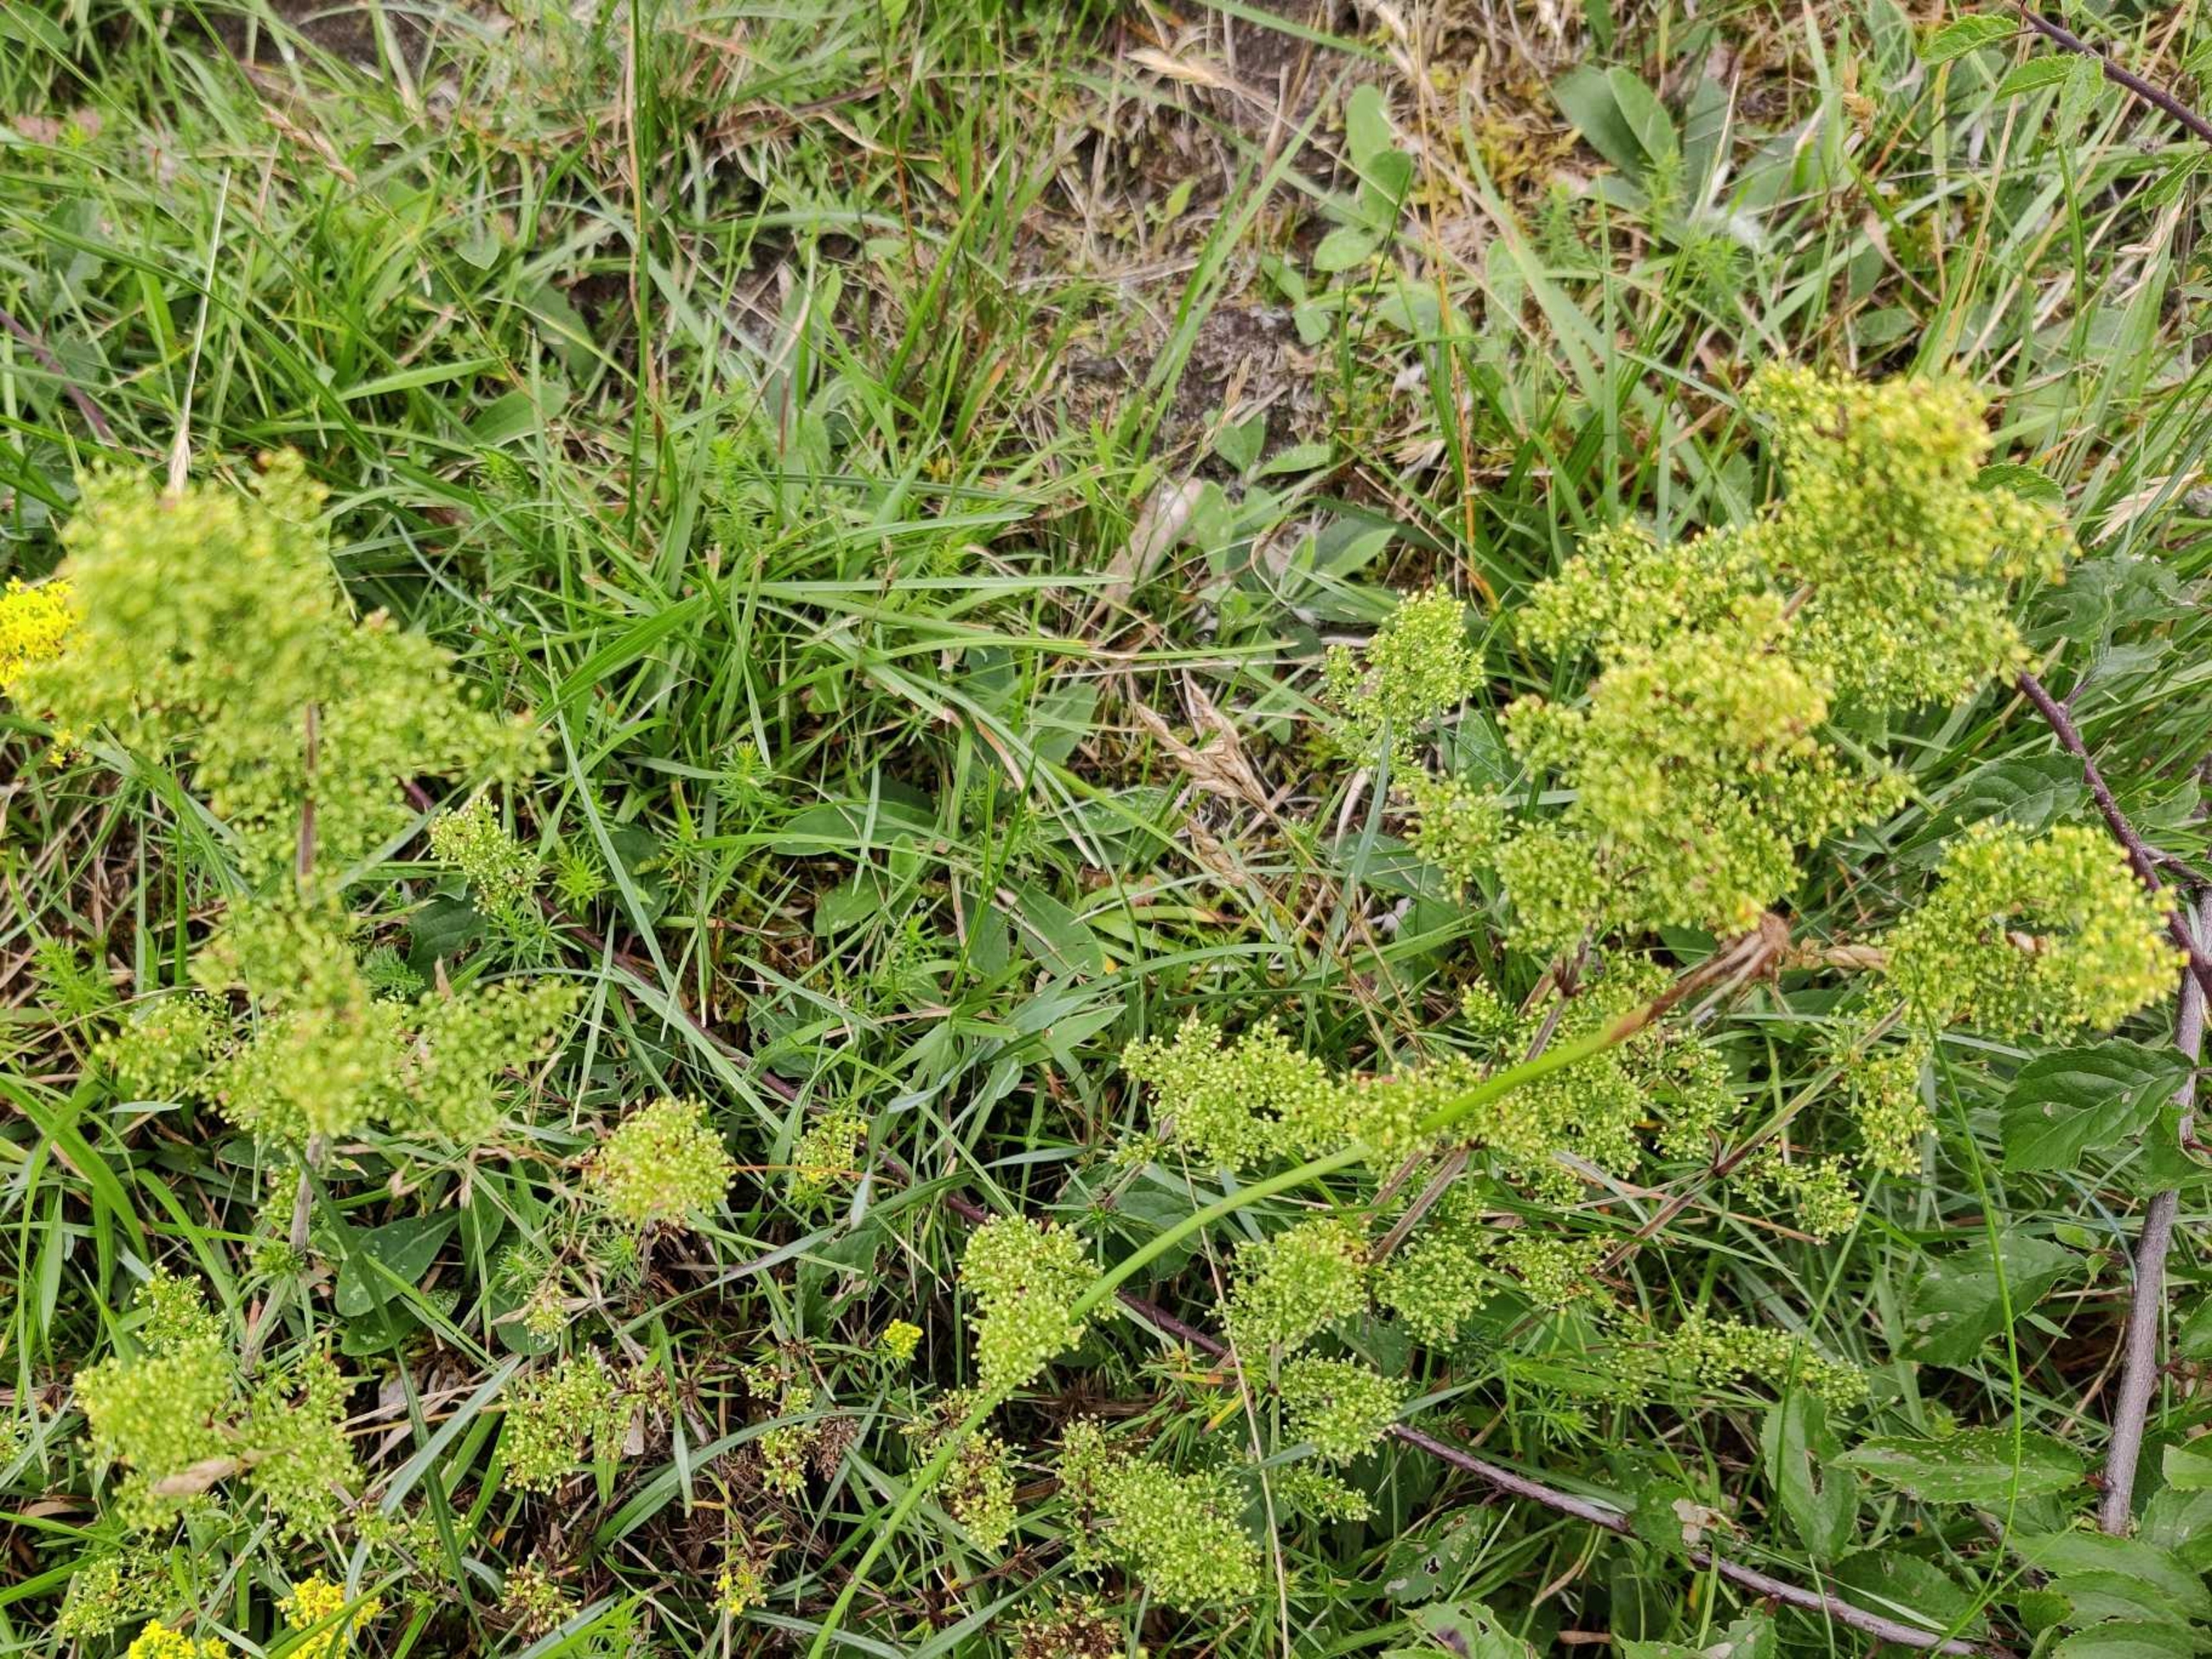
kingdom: Plantae
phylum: Tracheophyta
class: Magnoliopsida
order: Gentianales
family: Rubiaceae
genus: Galium
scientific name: Galium verum
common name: Gul snerre
